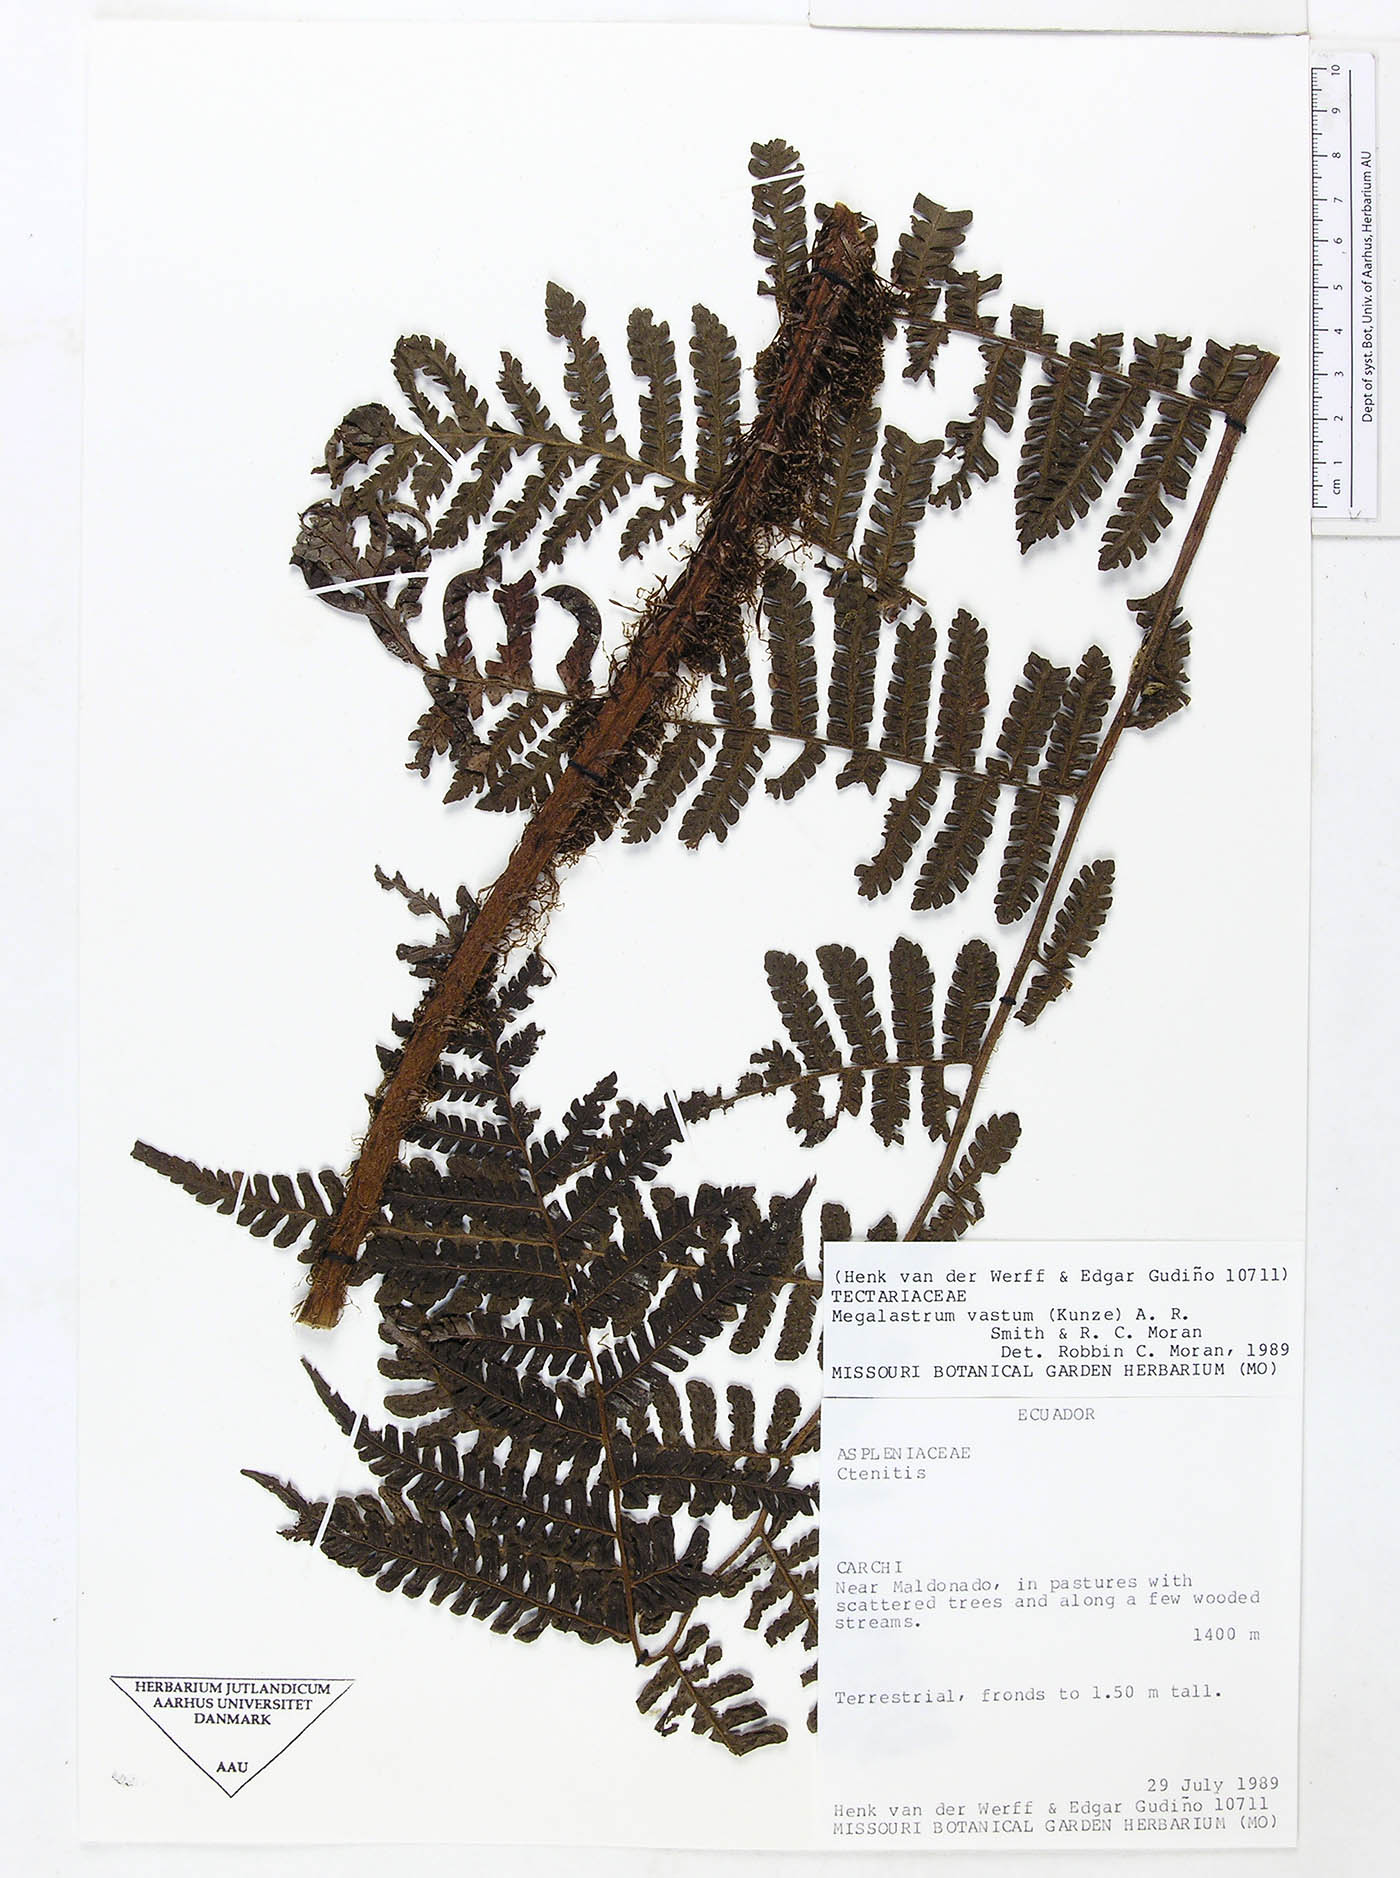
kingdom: Plantae
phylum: Tracheophyta
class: Polypodiopsida
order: Polypodiales
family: Dryopteridaceae
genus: Megalastrum
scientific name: Megalastrum vastum
